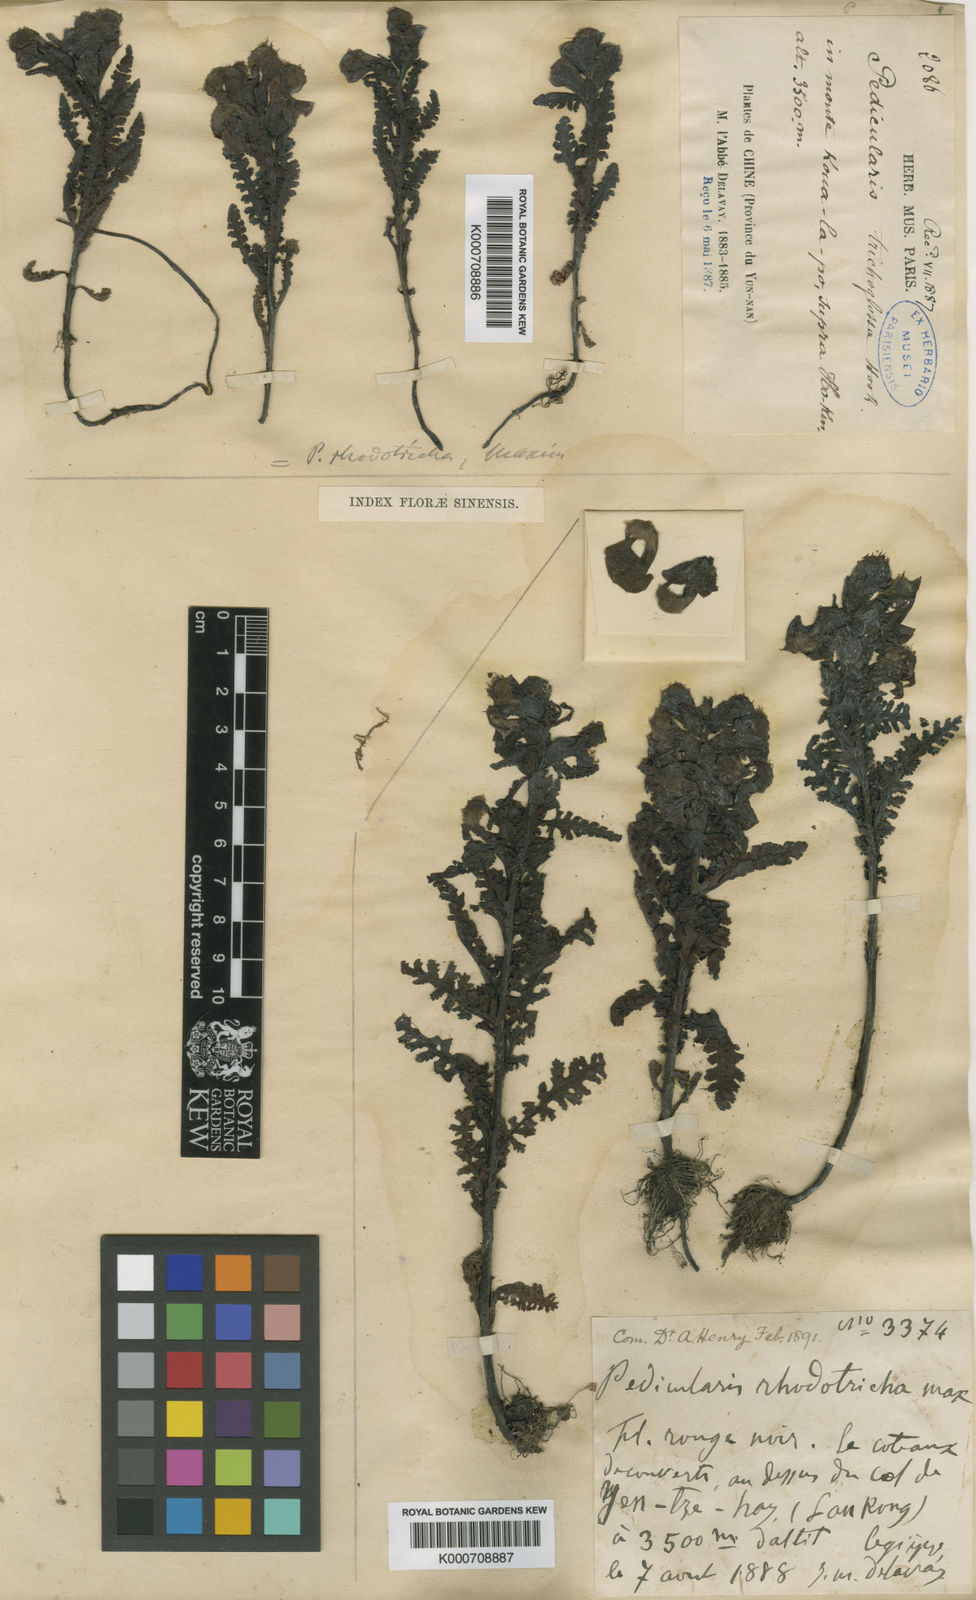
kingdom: Plantae
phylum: Tracheophyta
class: Magnoliopsida
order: Lamiales
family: Orobanchaceae
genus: Pedicularis
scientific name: Pedicularis rhodotricha
